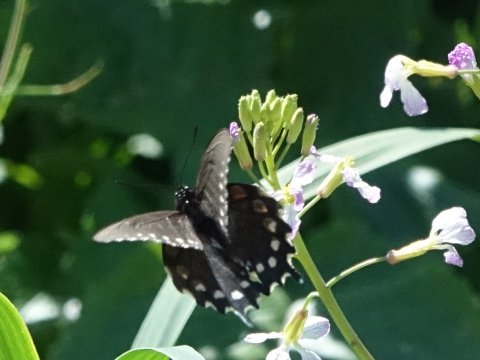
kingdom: Animalia
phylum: Arthropoda
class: Insecta
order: Lepidoptera
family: Papilionidae
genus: Battus
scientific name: Battus philenor
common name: Pipevine Swallowtail
